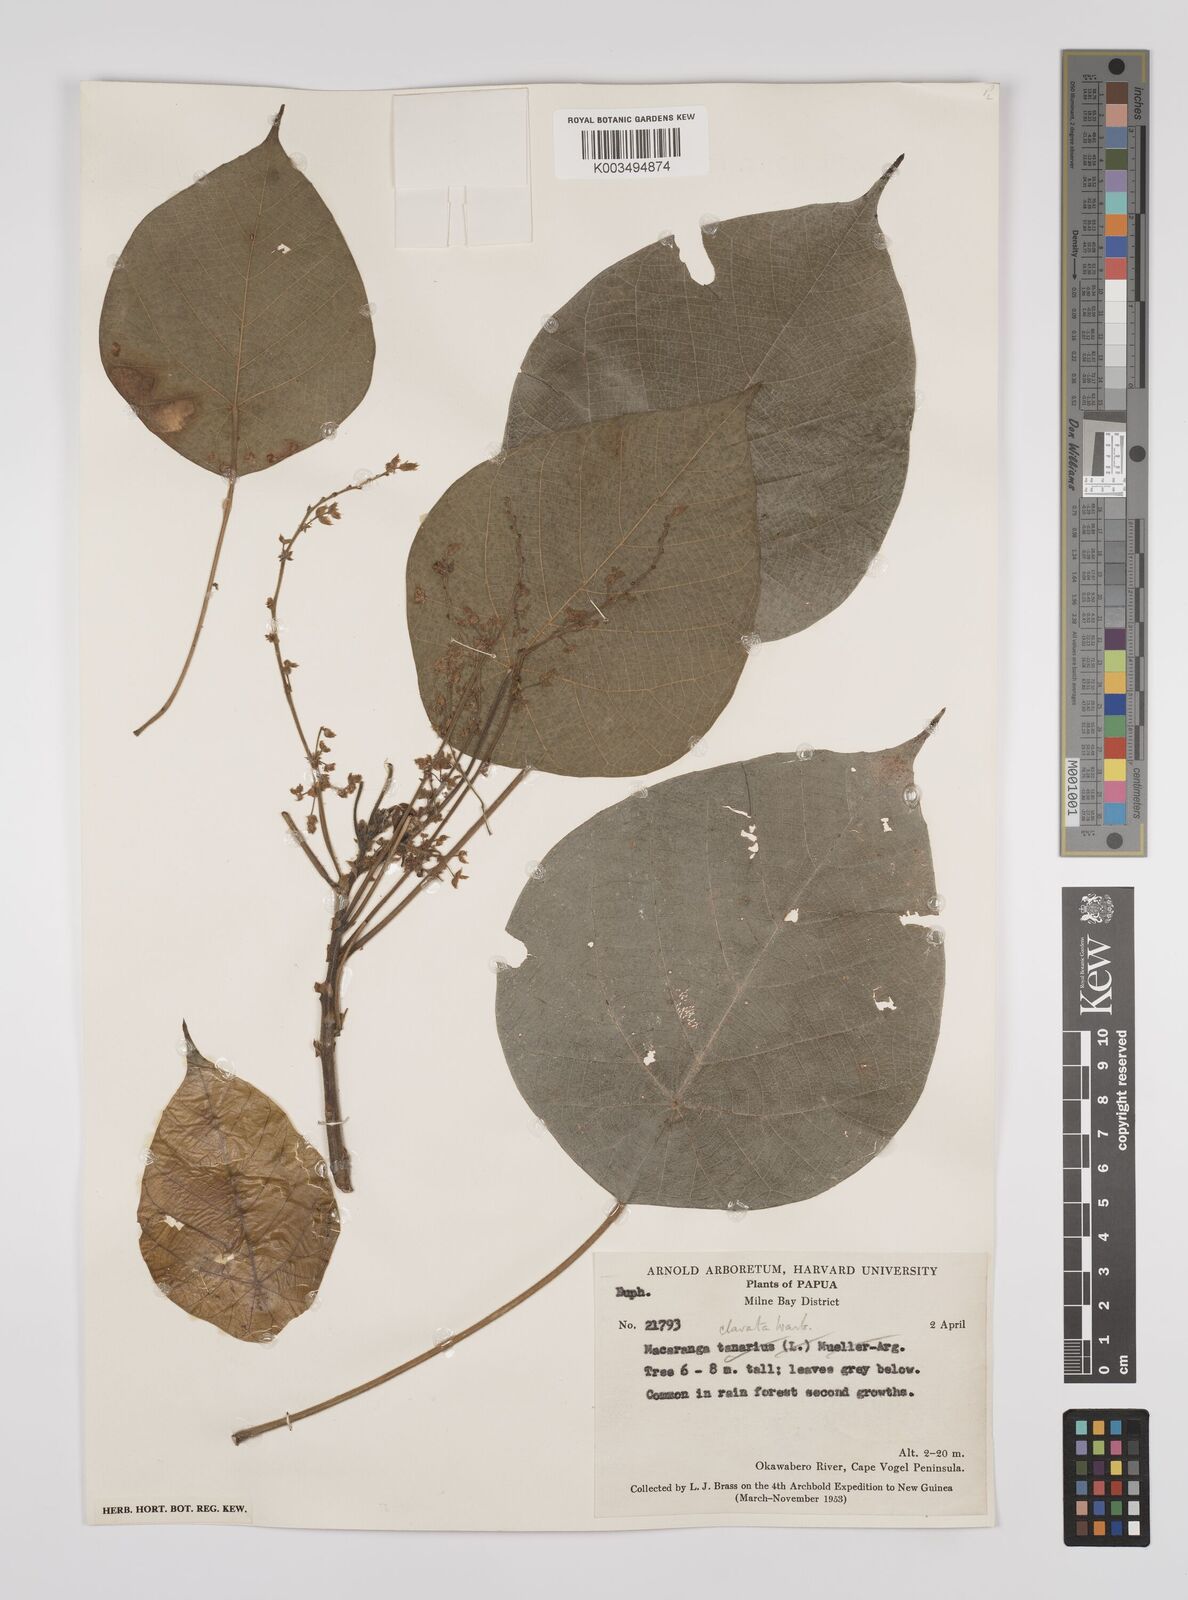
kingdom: Plantae
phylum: Tracheophyta
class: Magnoliopsida
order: Malpighiales
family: Euphorbiaceae
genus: Macaranga
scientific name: Macaranga clavata
